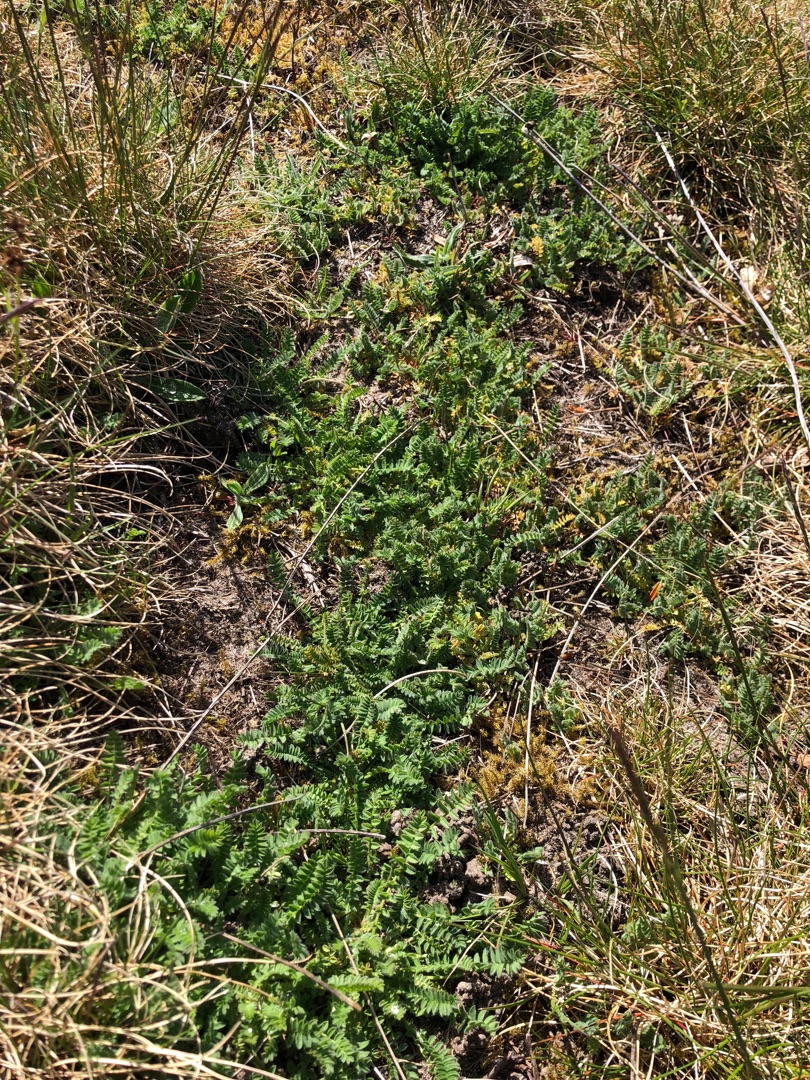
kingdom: Plantae
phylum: Tracheophyta
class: Magnoliopsida
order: Fabales
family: Fabaceae
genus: Ornithopus
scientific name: Ornithopus perpusillus
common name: Liden fugleklo
